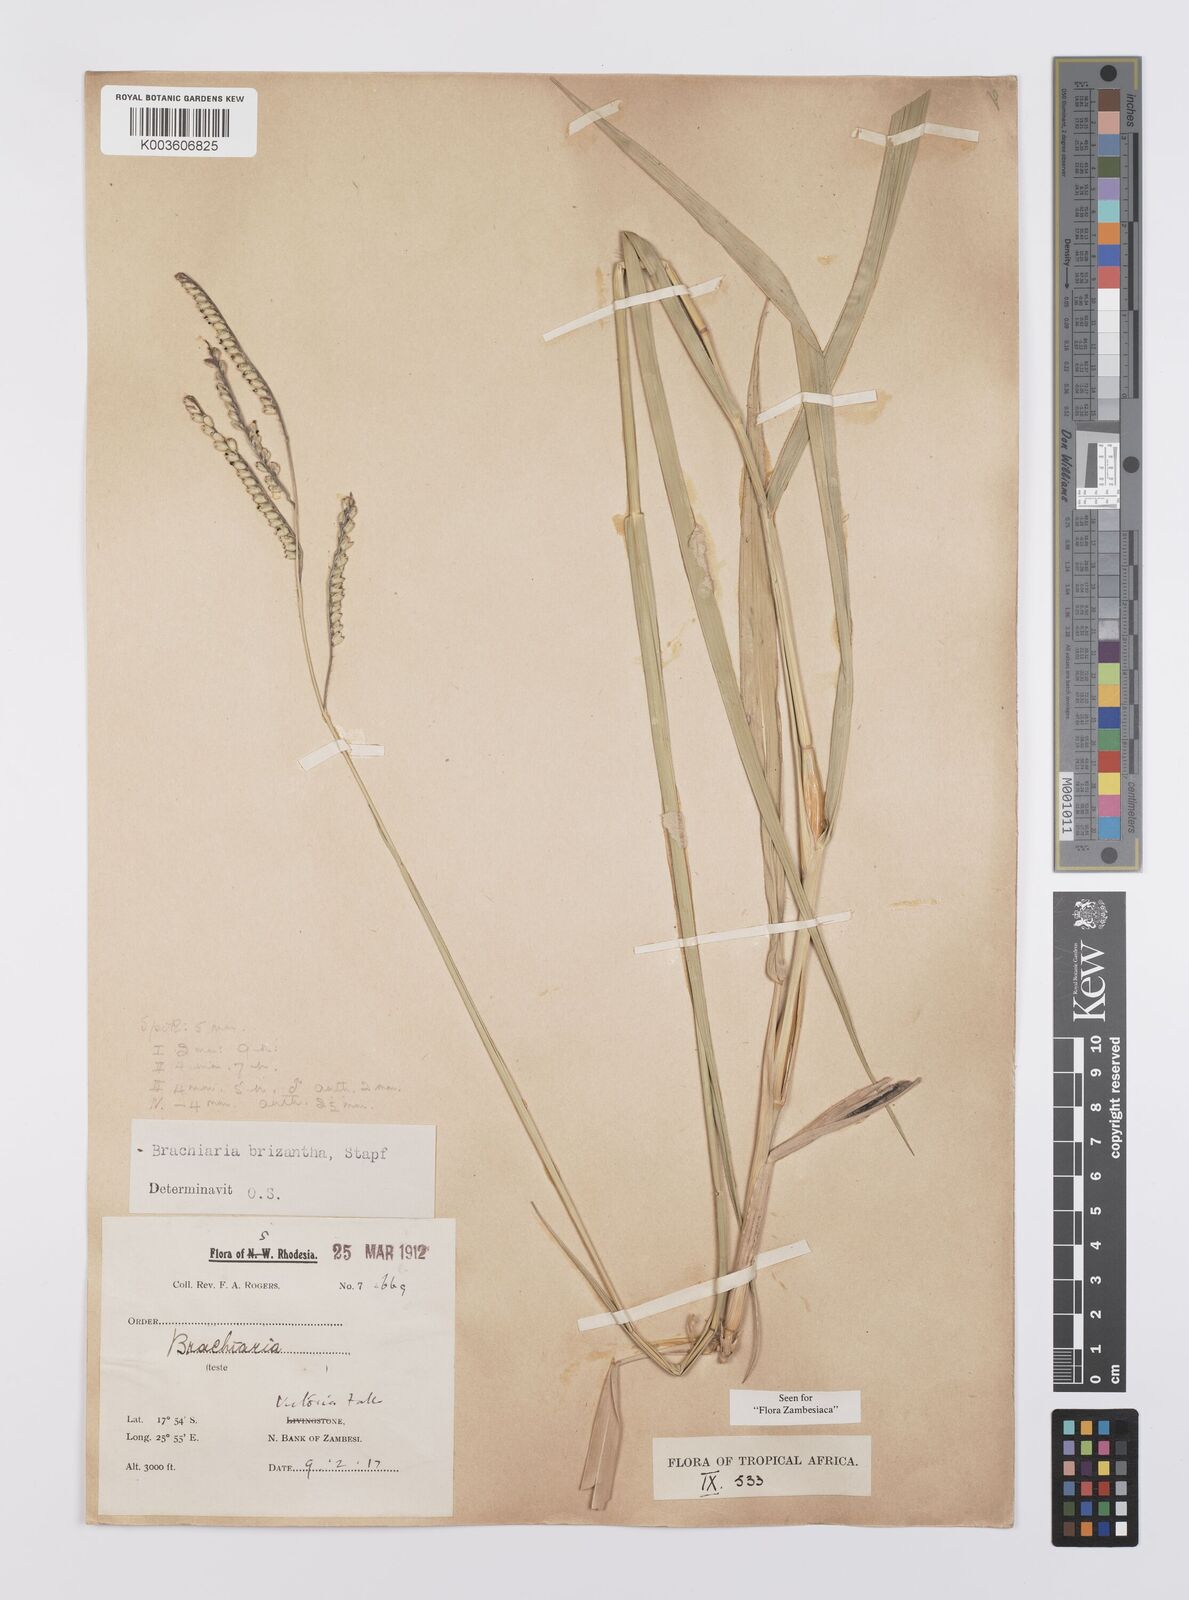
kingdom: Plantae
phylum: Tracheophyta
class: Liliopsida
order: Poales
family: Poaceae
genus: Urochloa
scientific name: Urochloa brizantha
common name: Palisade signalgrass
